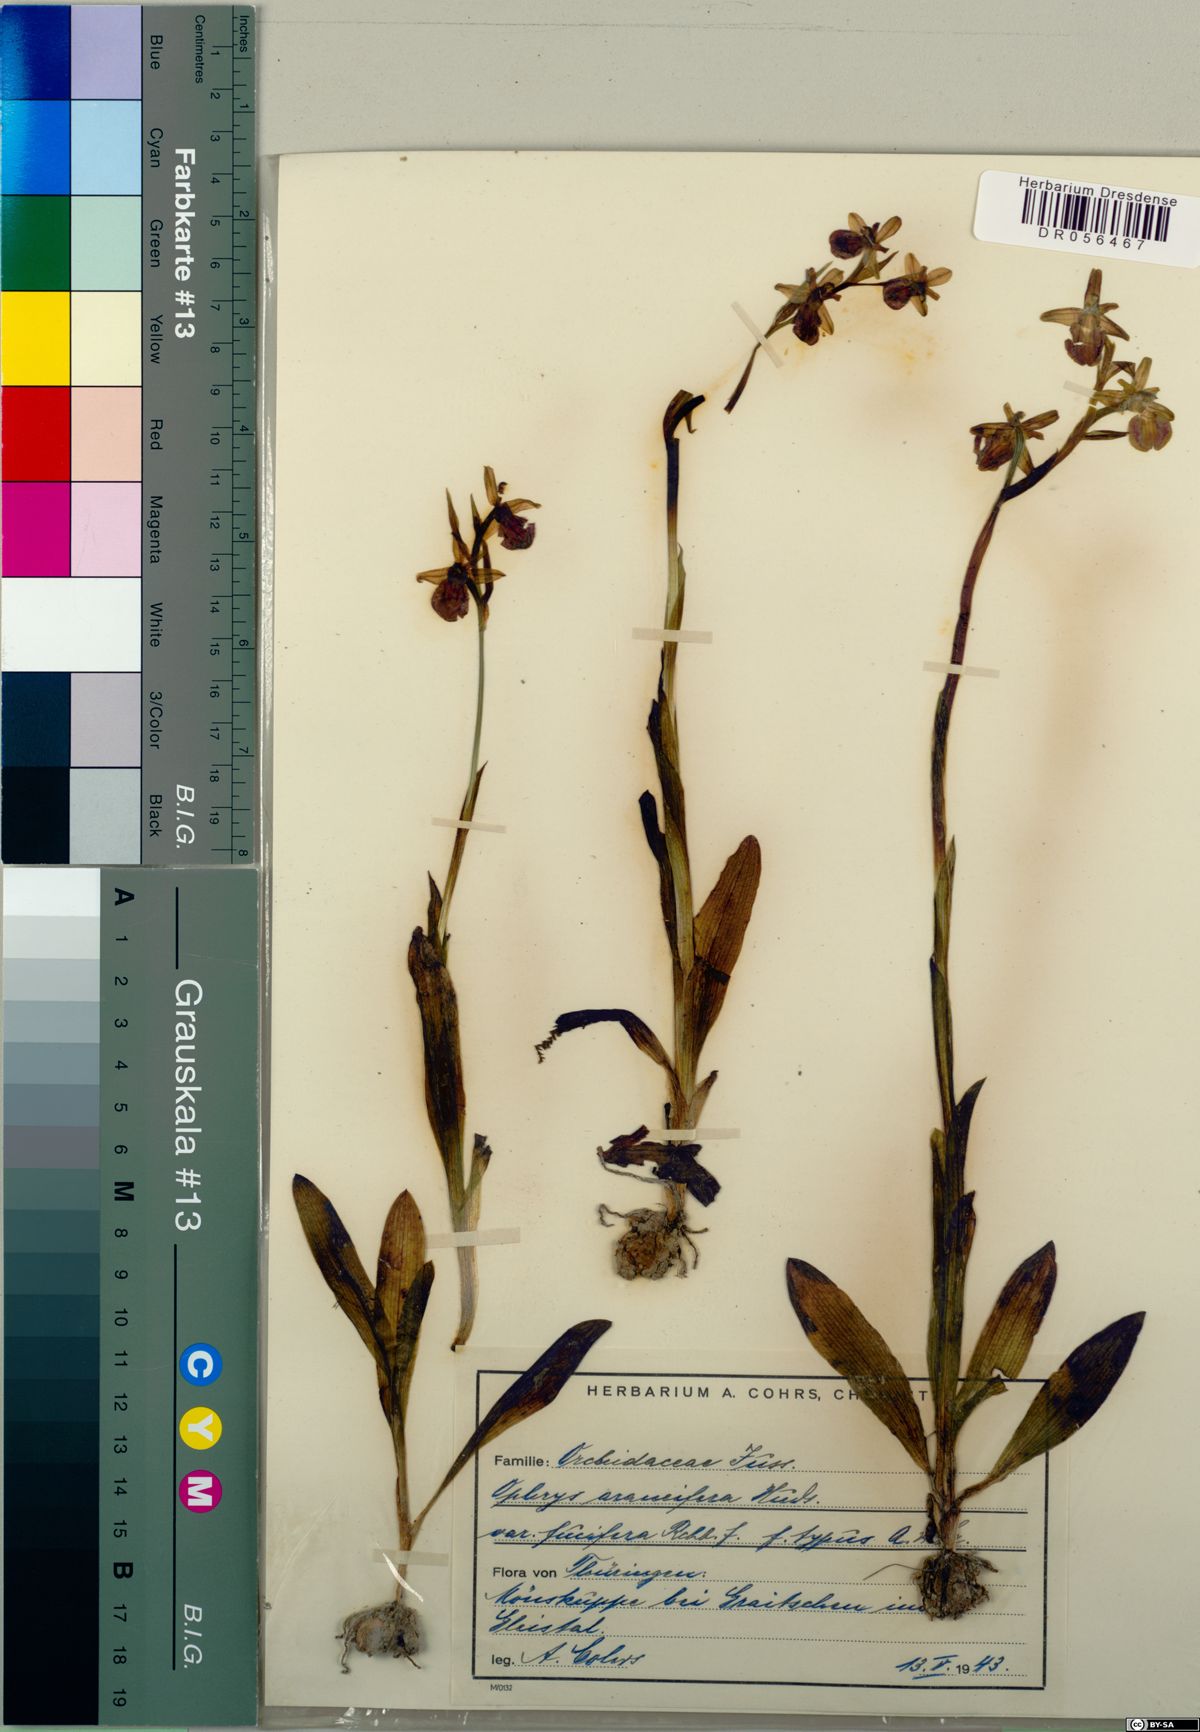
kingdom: Plantae
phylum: Tracheophyta
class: Liliopsida
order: Asparagales
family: Orchidaceae
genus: Ophrys
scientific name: Ophrys sphegodes
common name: Early spider-orchid
